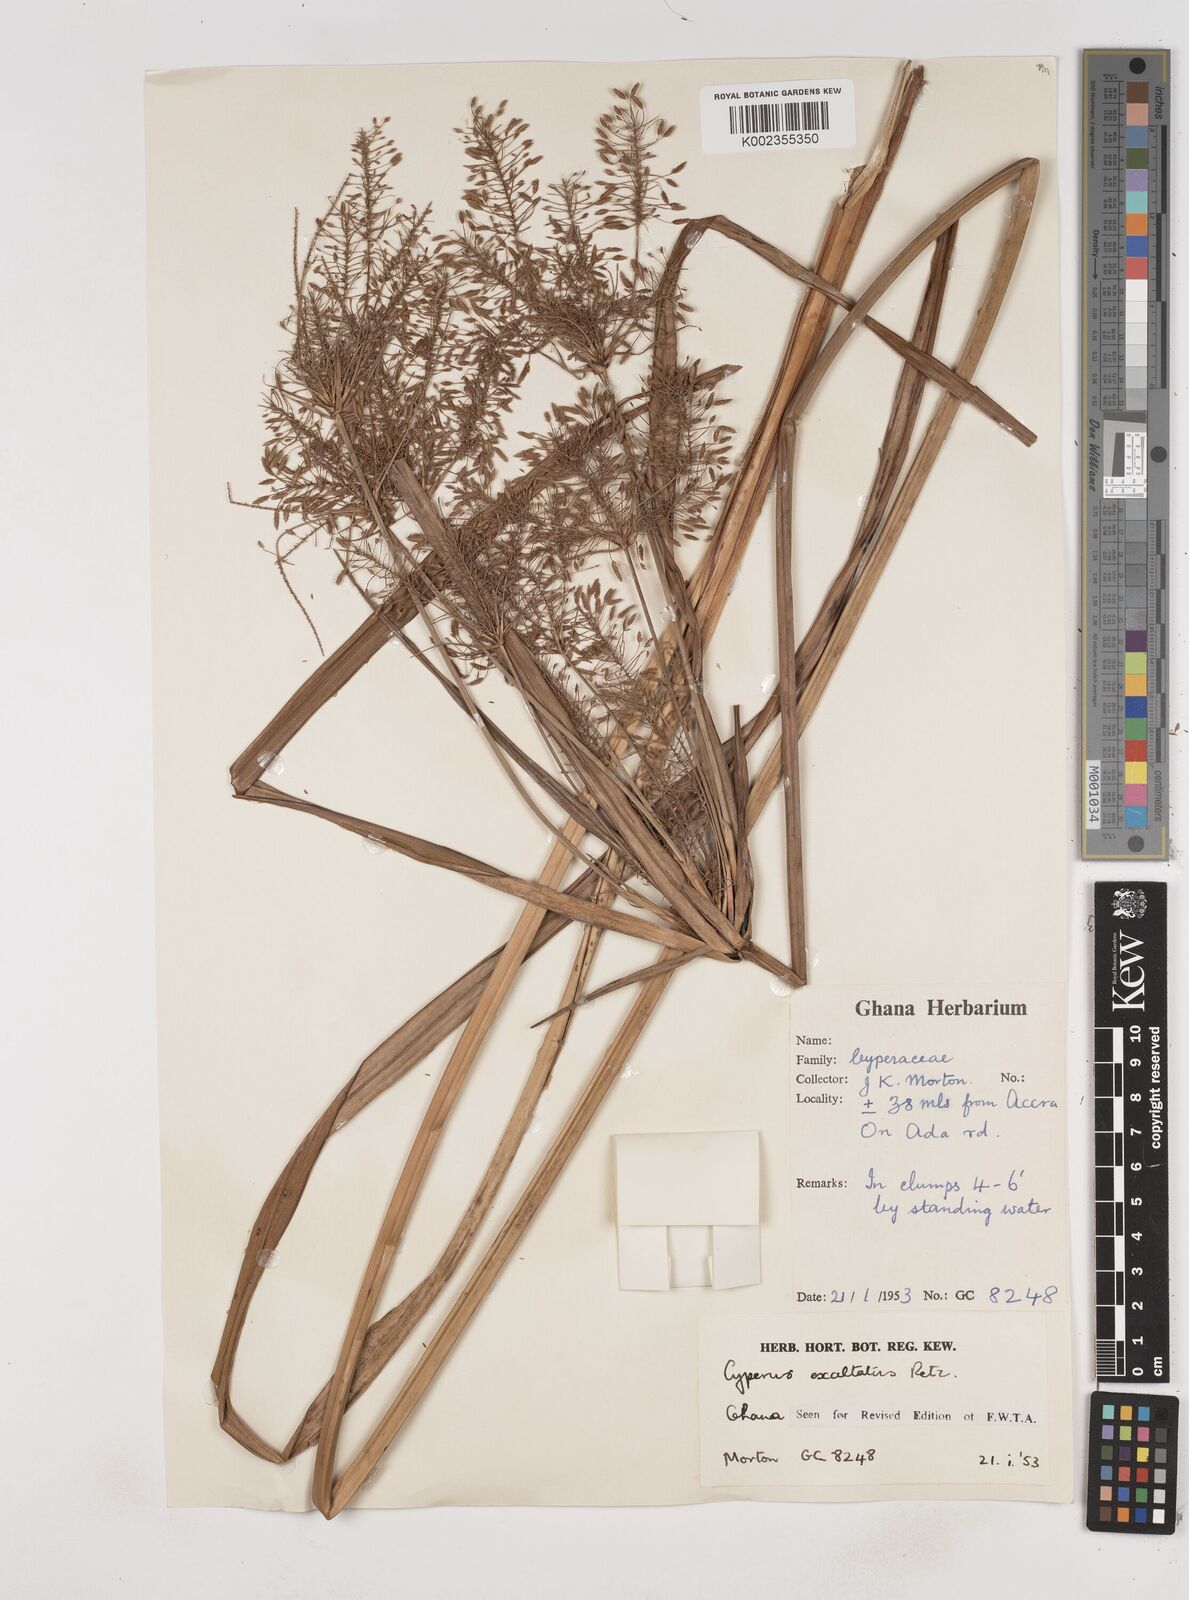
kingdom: Plantae
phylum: Tracheophyta
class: Liliopsida
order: Poales
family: Cyperaceae
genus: Cyperus
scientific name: Cyperus exaltatus
